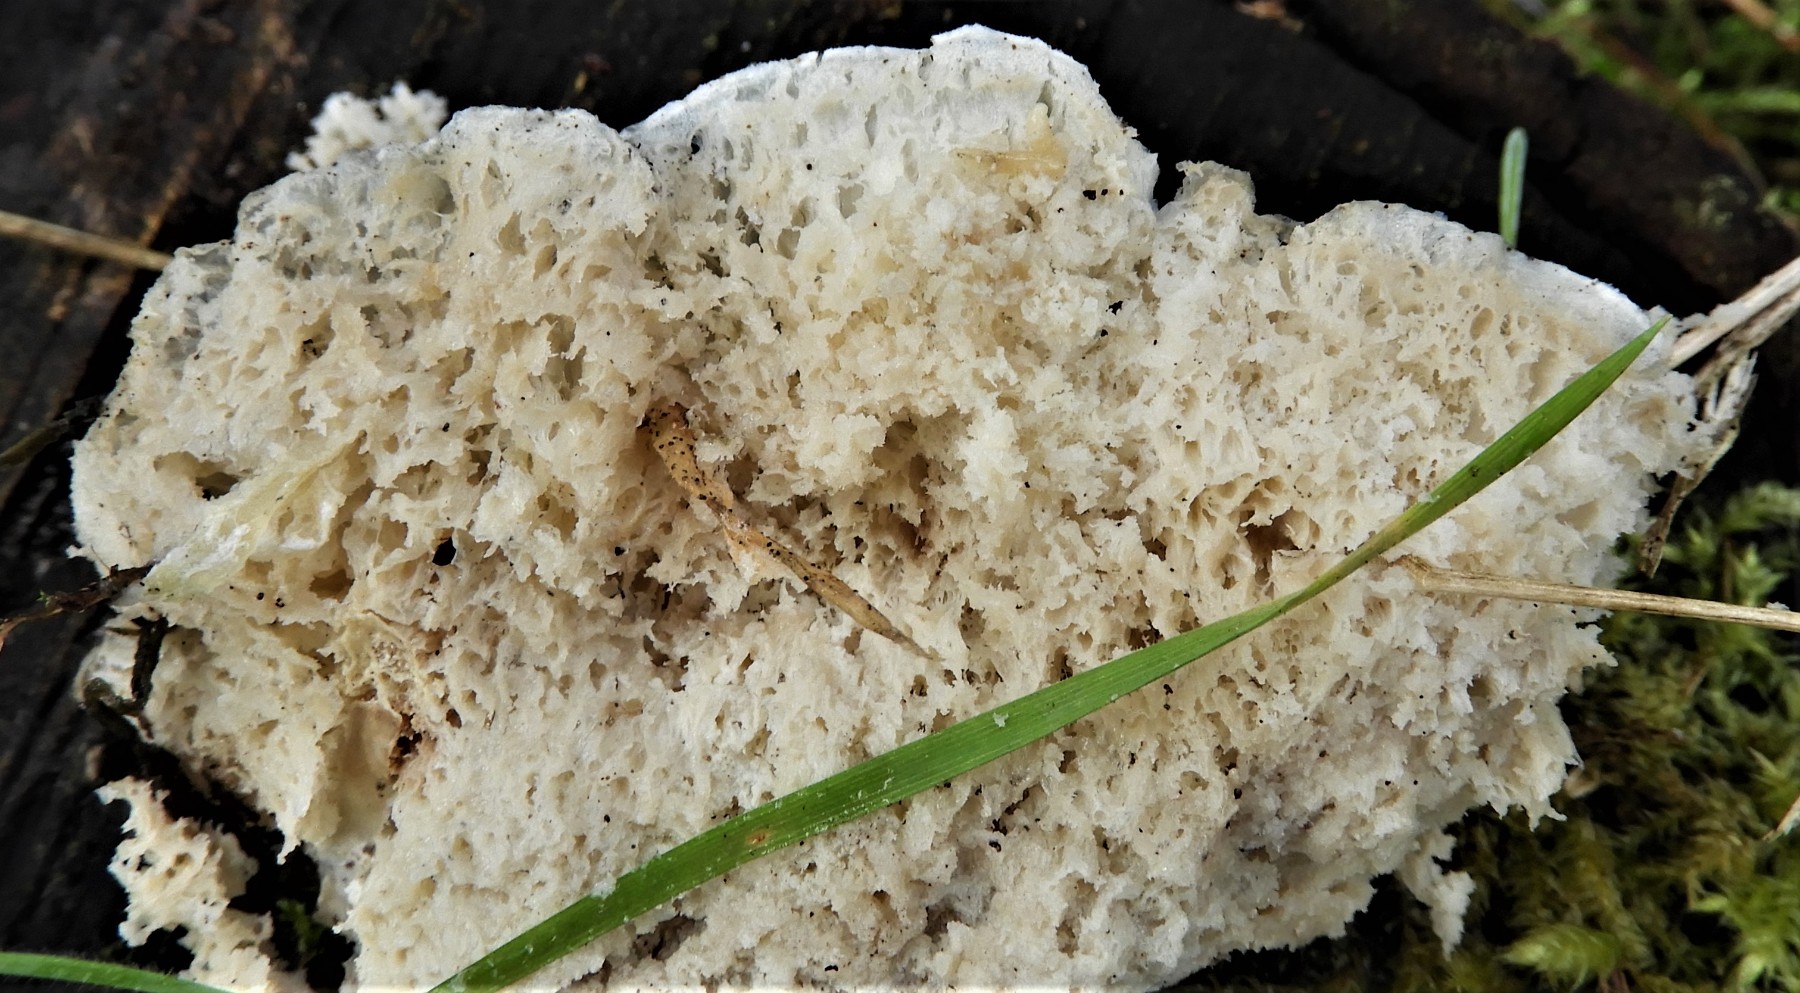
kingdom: Fungi
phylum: Basidiomycota
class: Agaricomycetes
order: Polyporales
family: Fomitopsidaceae
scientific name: Fomitopsidaceae
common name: hovporesvampfamilien
